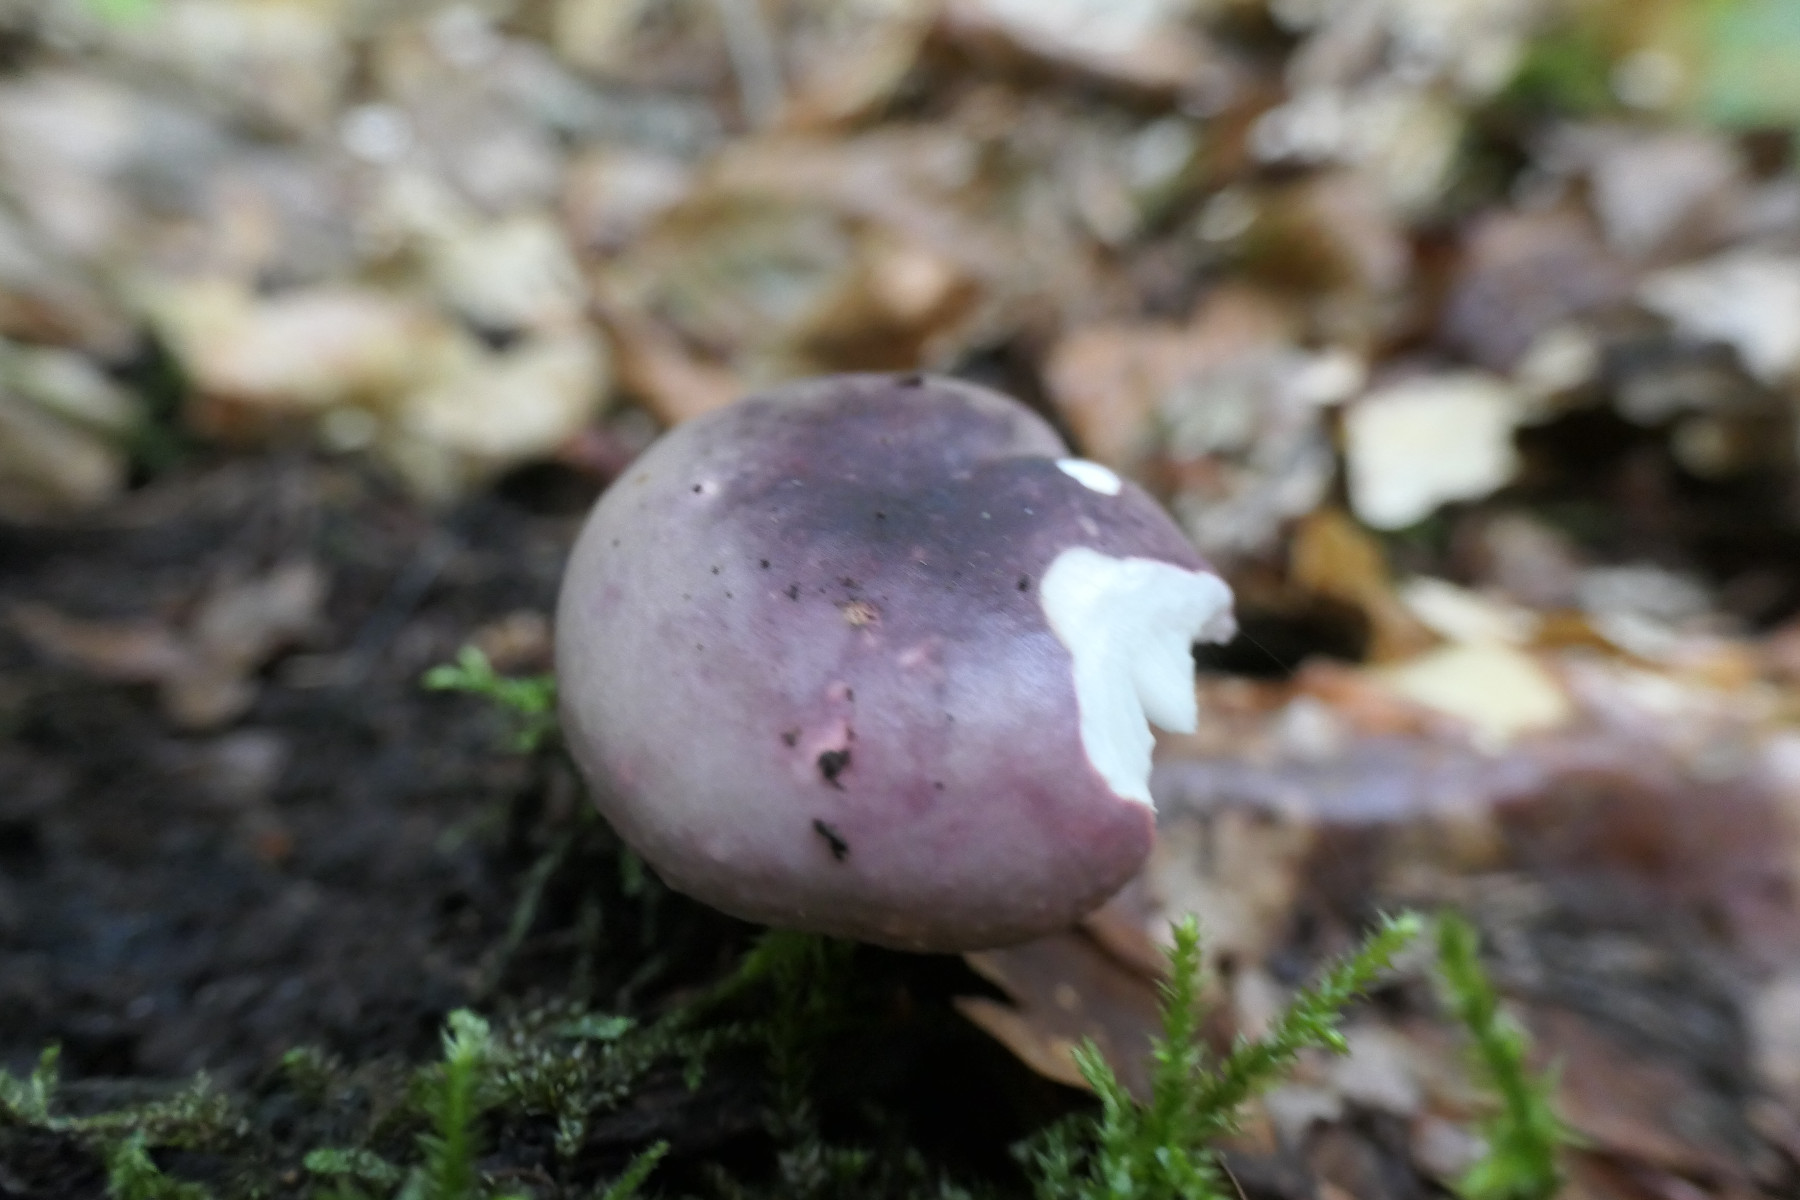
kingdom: Fungi
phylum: Basidiomycota
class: Agaricomycetes
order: Russulales
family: Russulaceae
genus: Russula
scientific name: Russula fragilis
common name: savbladet skørhat
